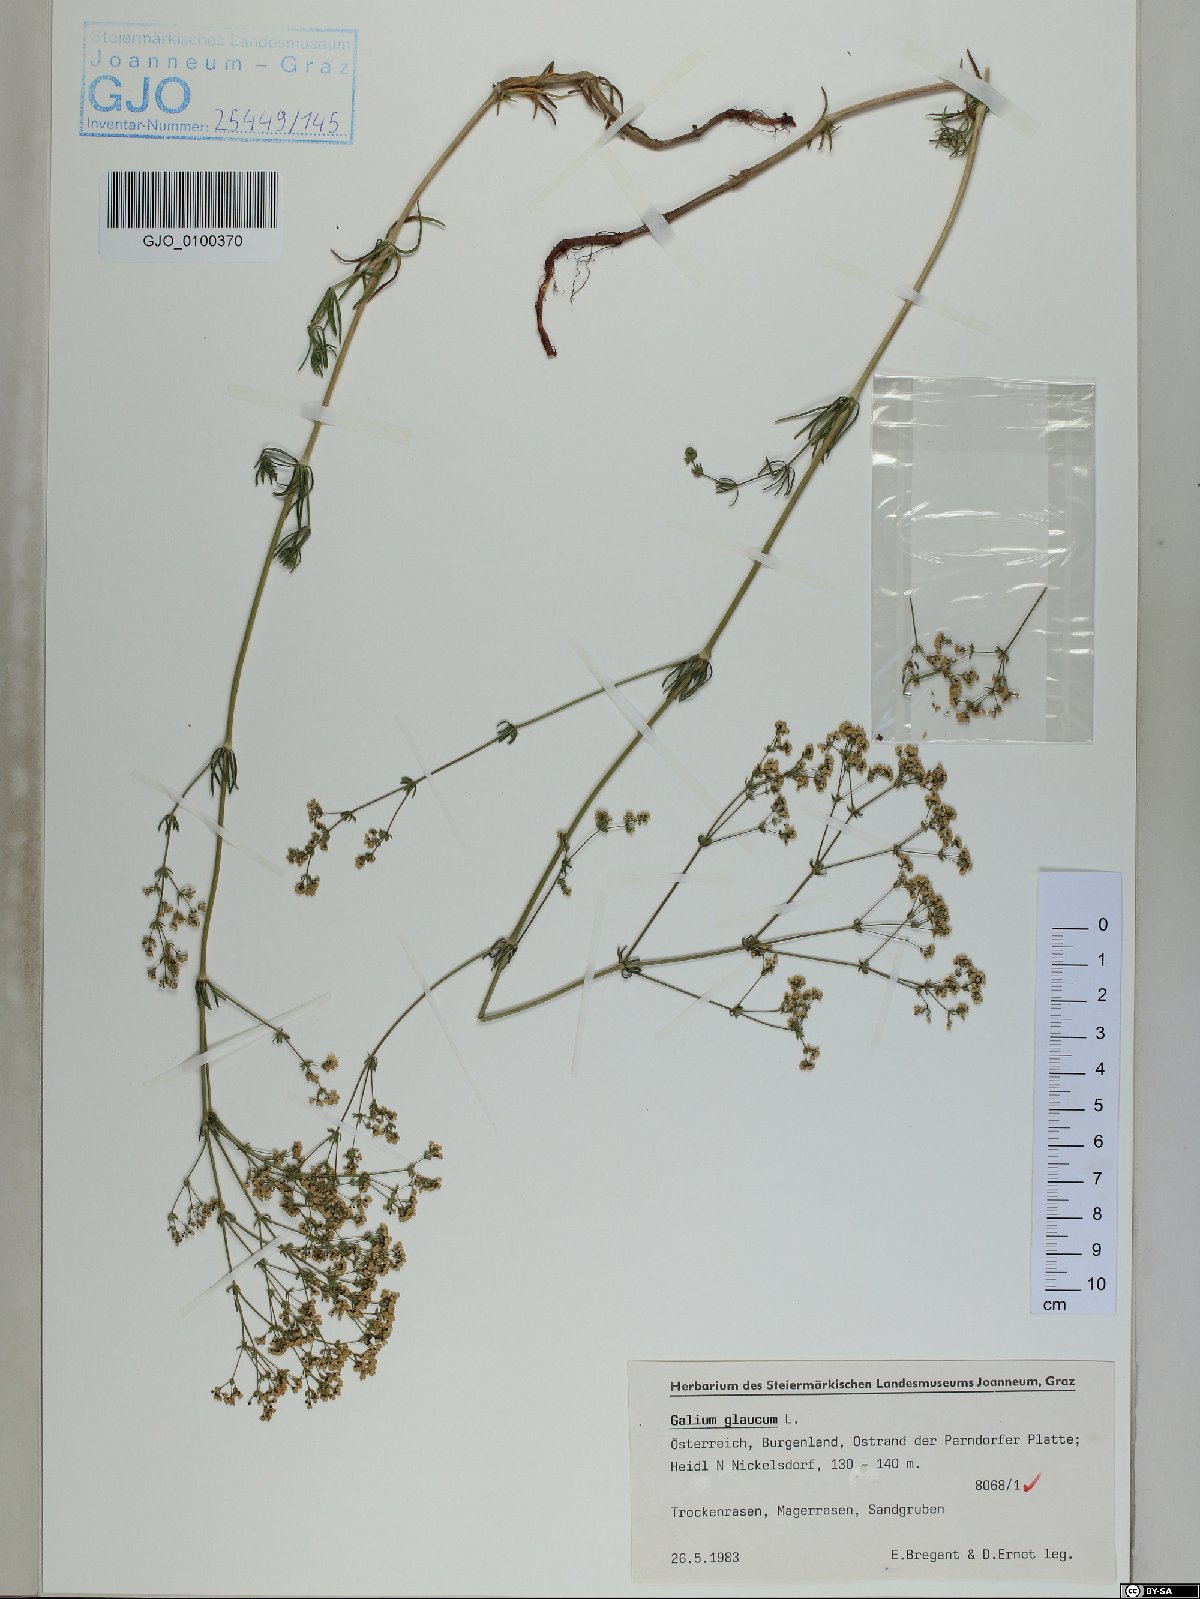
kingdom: Plantae
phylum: Tracheophyta
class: Magnoliopsida
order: Gentianales
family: Rubiaceae
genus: Galium
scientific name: Galium glaucum
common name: Waxy bedstraw
